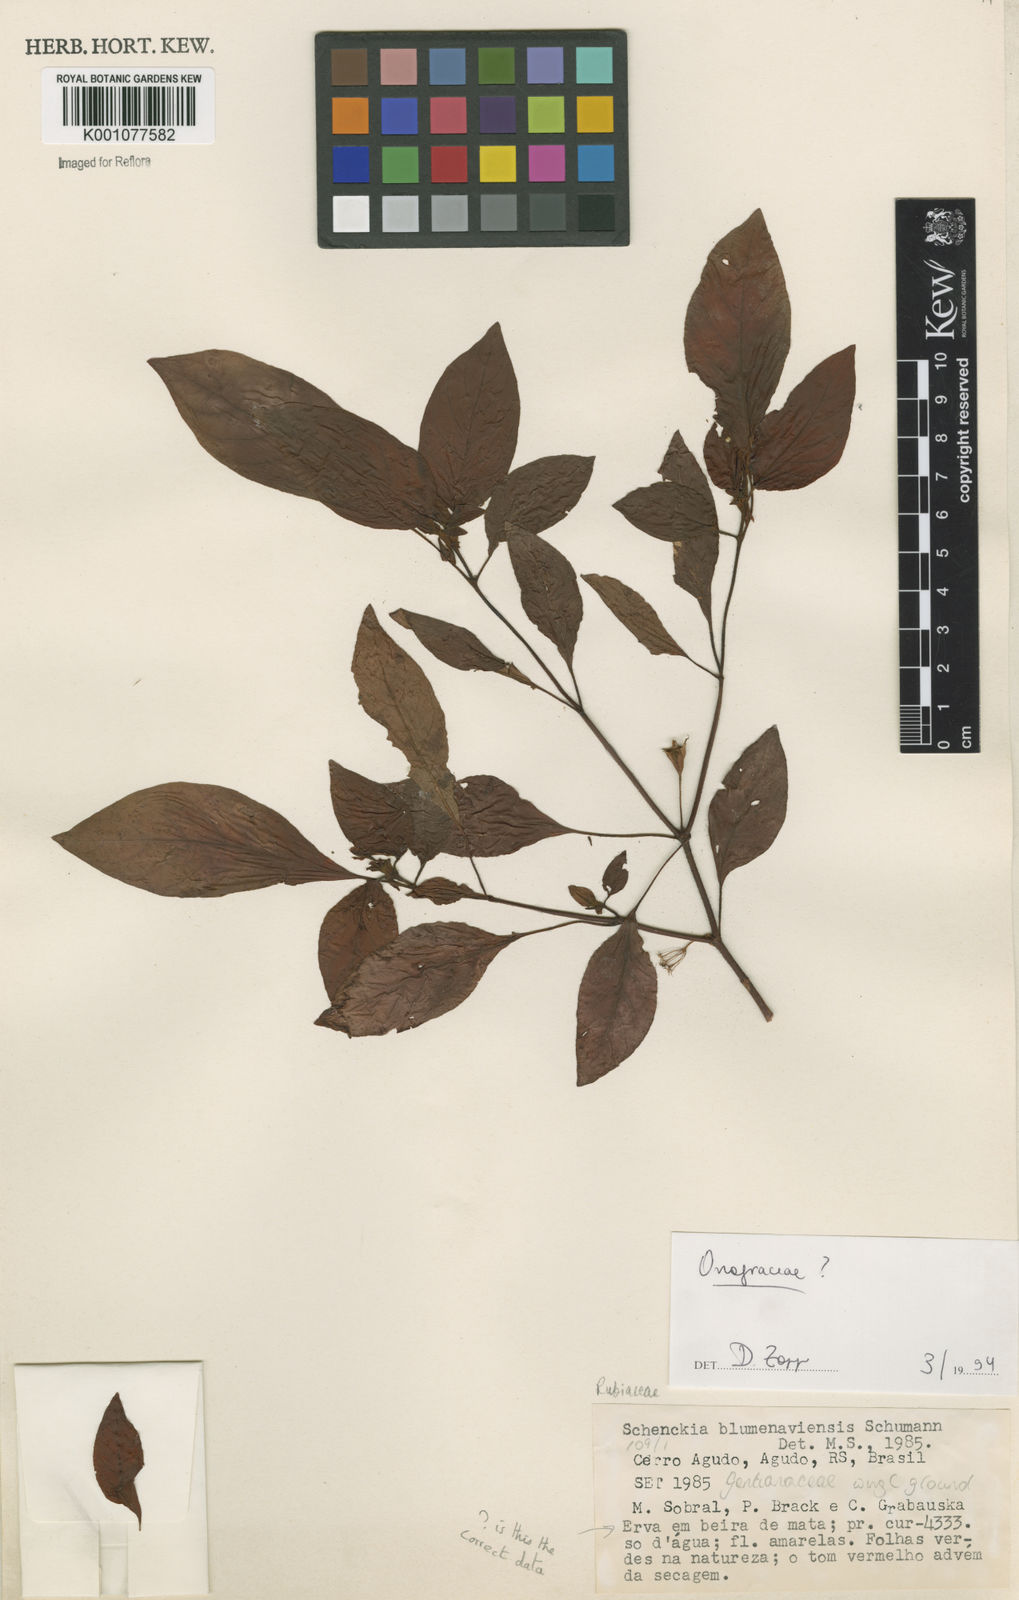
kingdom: Plantae
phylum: Tracheophyta
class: Magnoliopsida
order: Myrtales
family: Onagraceae
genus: Epilobium
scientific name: Epilobium
